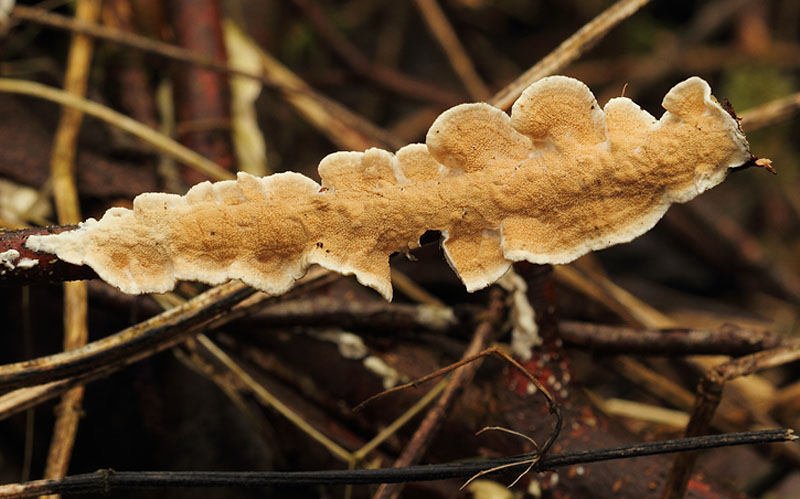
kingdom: Fungi
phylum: Basidiomycota
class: Agaricomycetes
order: Polyporales
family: Irpicaceae
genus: Byssomerulius
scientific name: Byssomerulius corium
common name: læder-åresvamp
